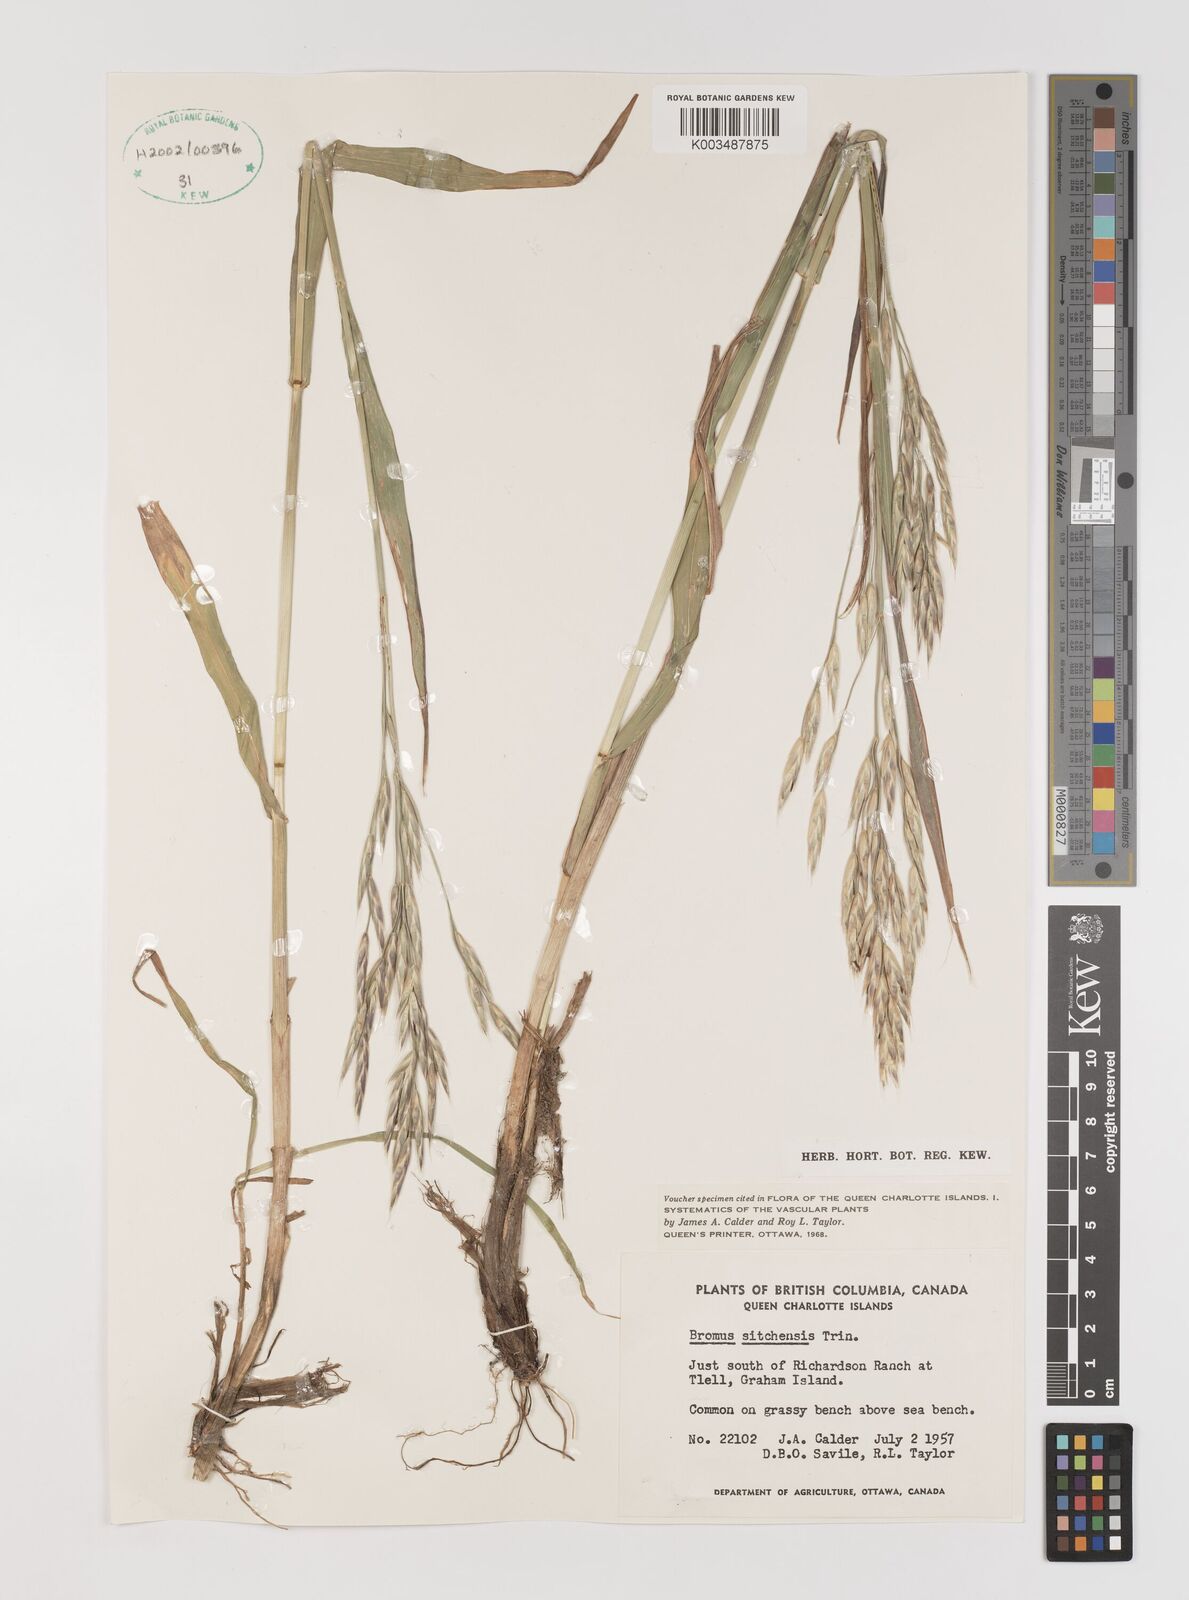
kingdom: Plantae
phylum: Tracheophyta
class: Liliopsida
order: Poales
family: Poaceae
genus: Bromus
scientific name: Bromus sitchensis
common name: Sitka brome
